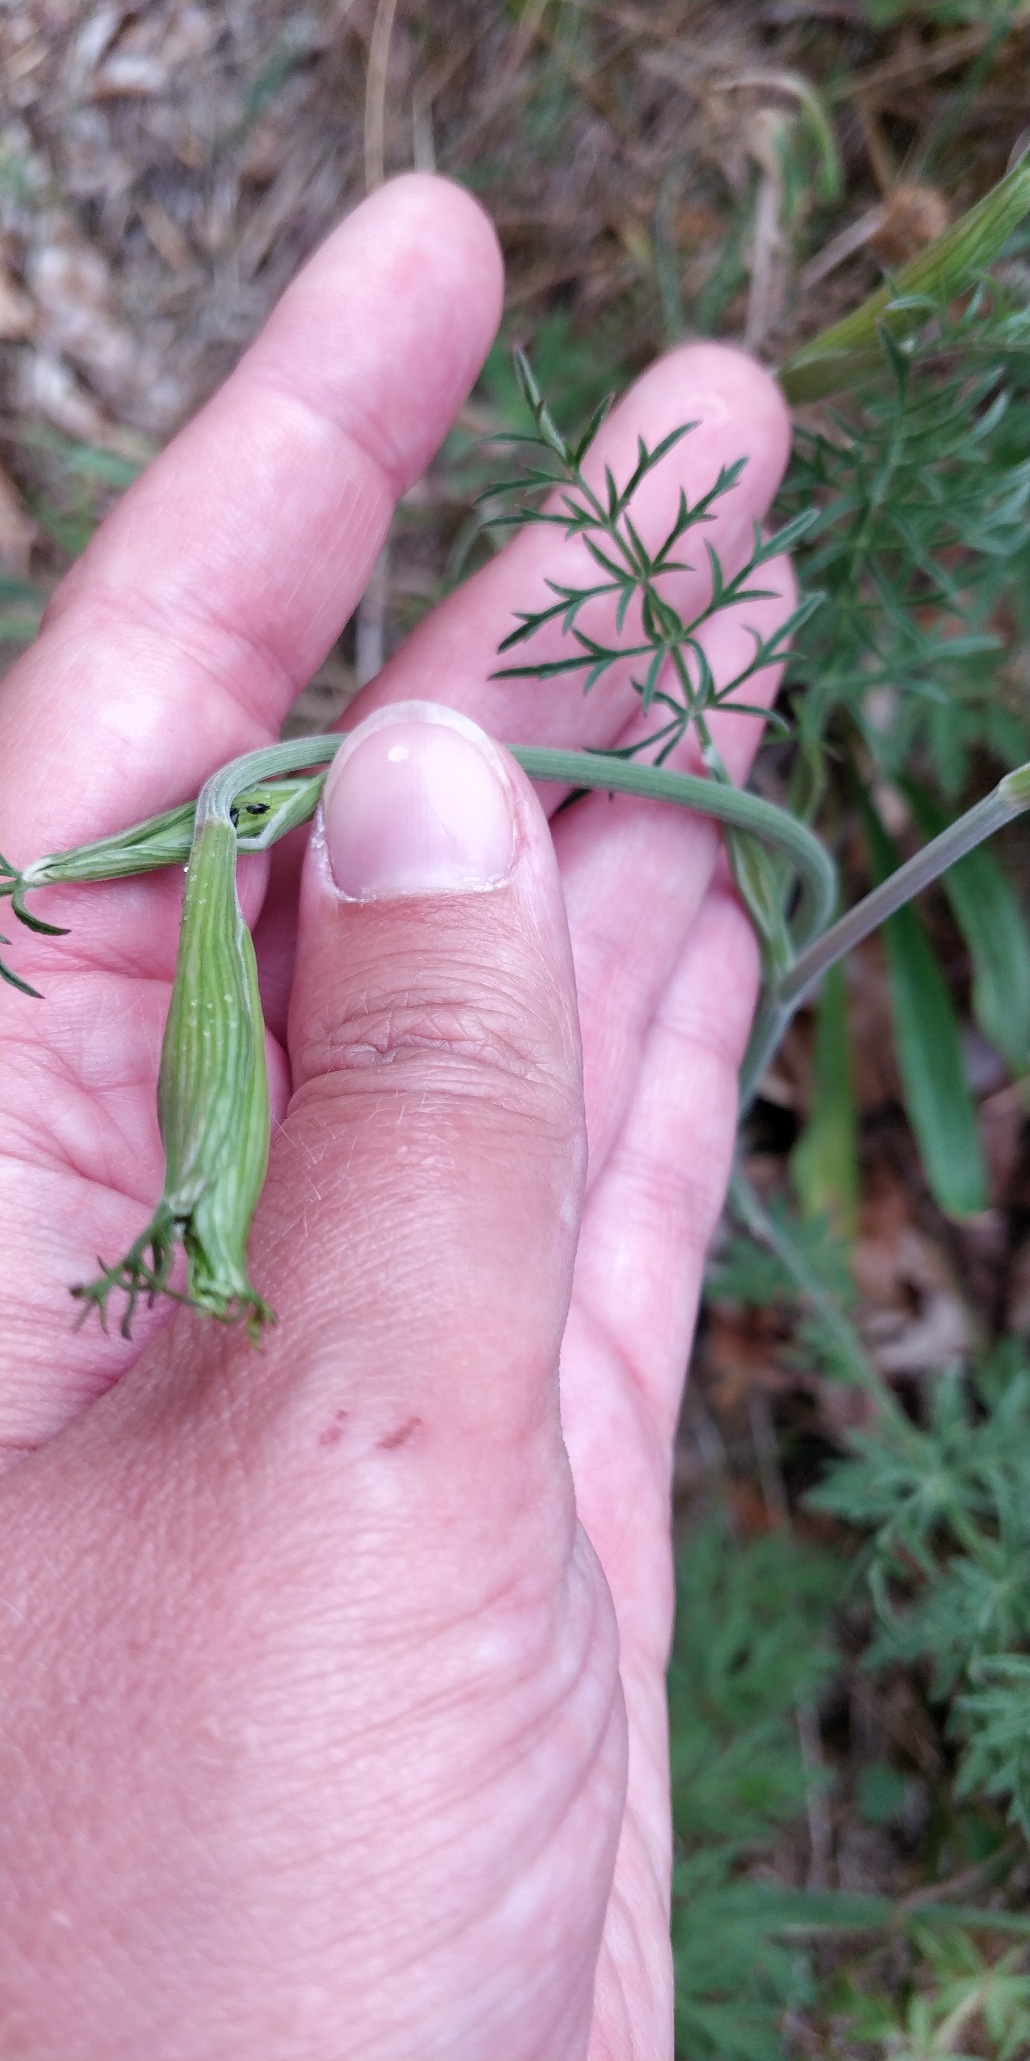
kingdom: Plantae
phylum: Tracheophyta
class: Magnoliopsida
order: Apiales
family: Apiaceae
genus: Pimpinella
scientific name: Pimpinella saxifraga
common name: Almindelig pimpinelle
